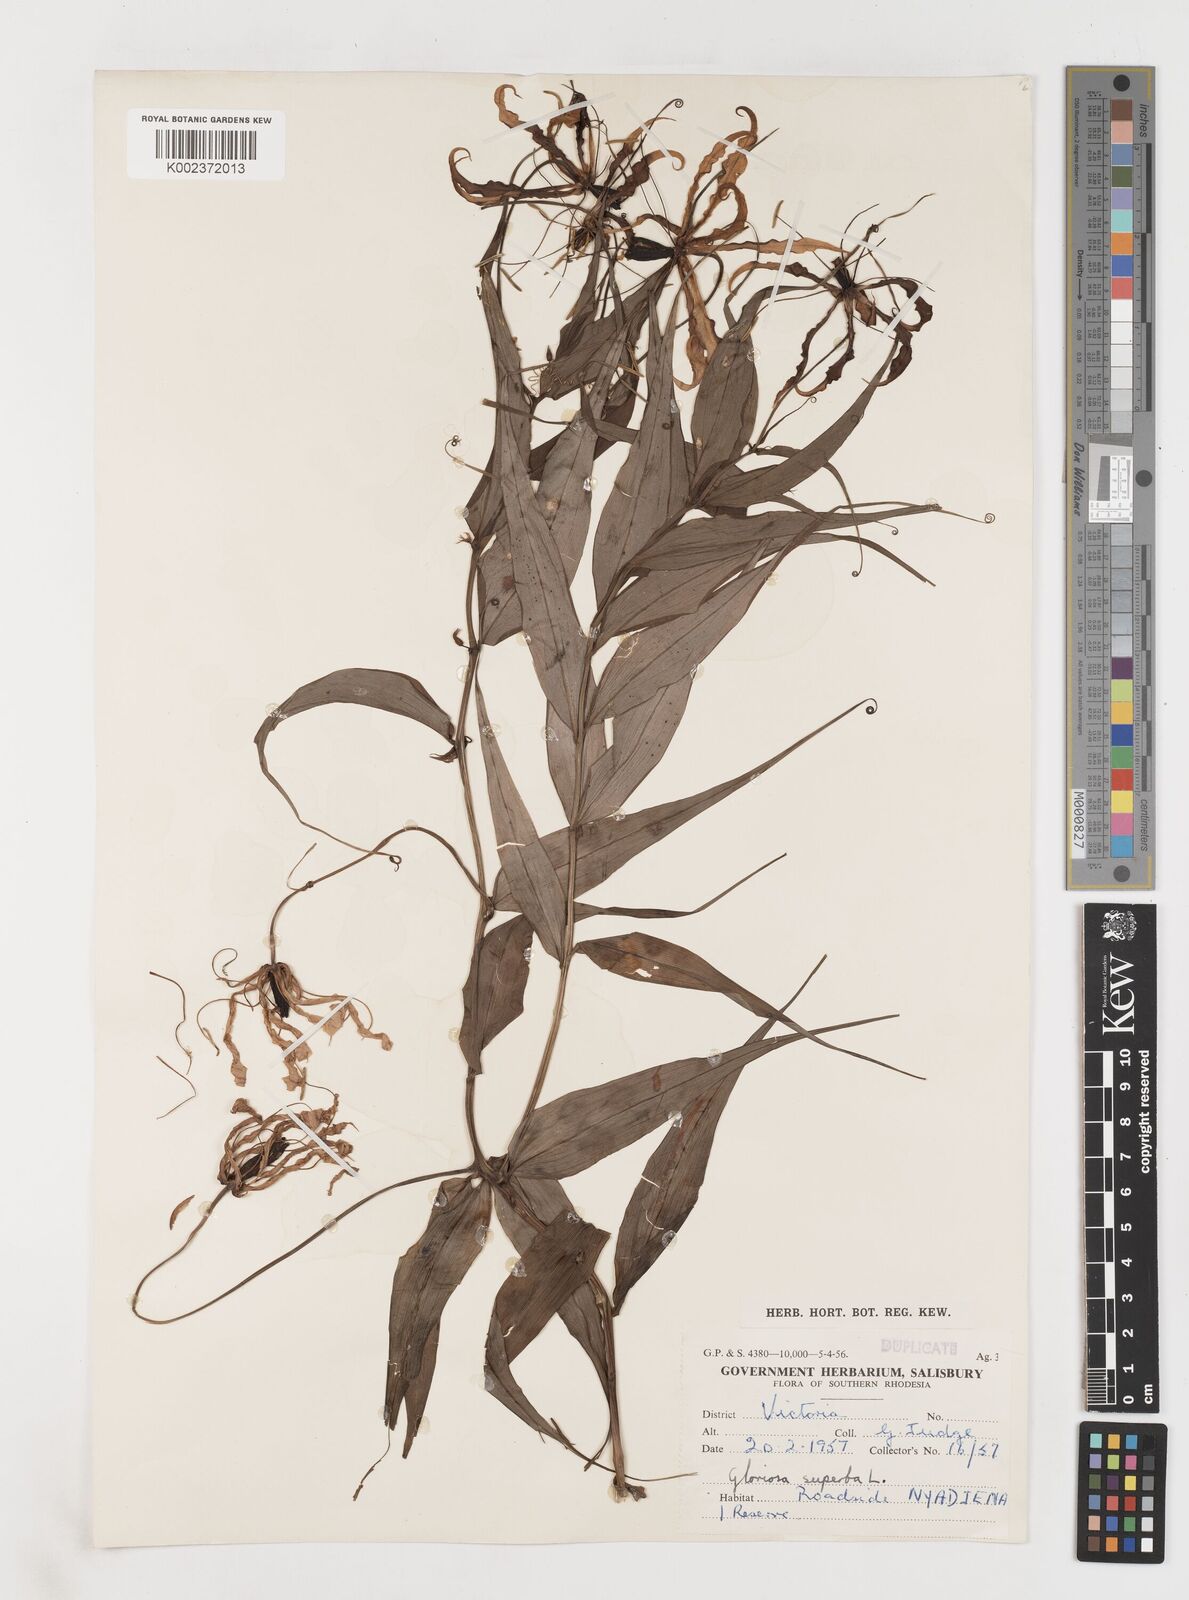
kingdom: Plantae
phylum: Tracheophyta
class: Liliopsida
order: Liliales
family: Colchicaceae
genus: Gloriosa
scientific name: Gloriosa superba
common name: Flame lily
